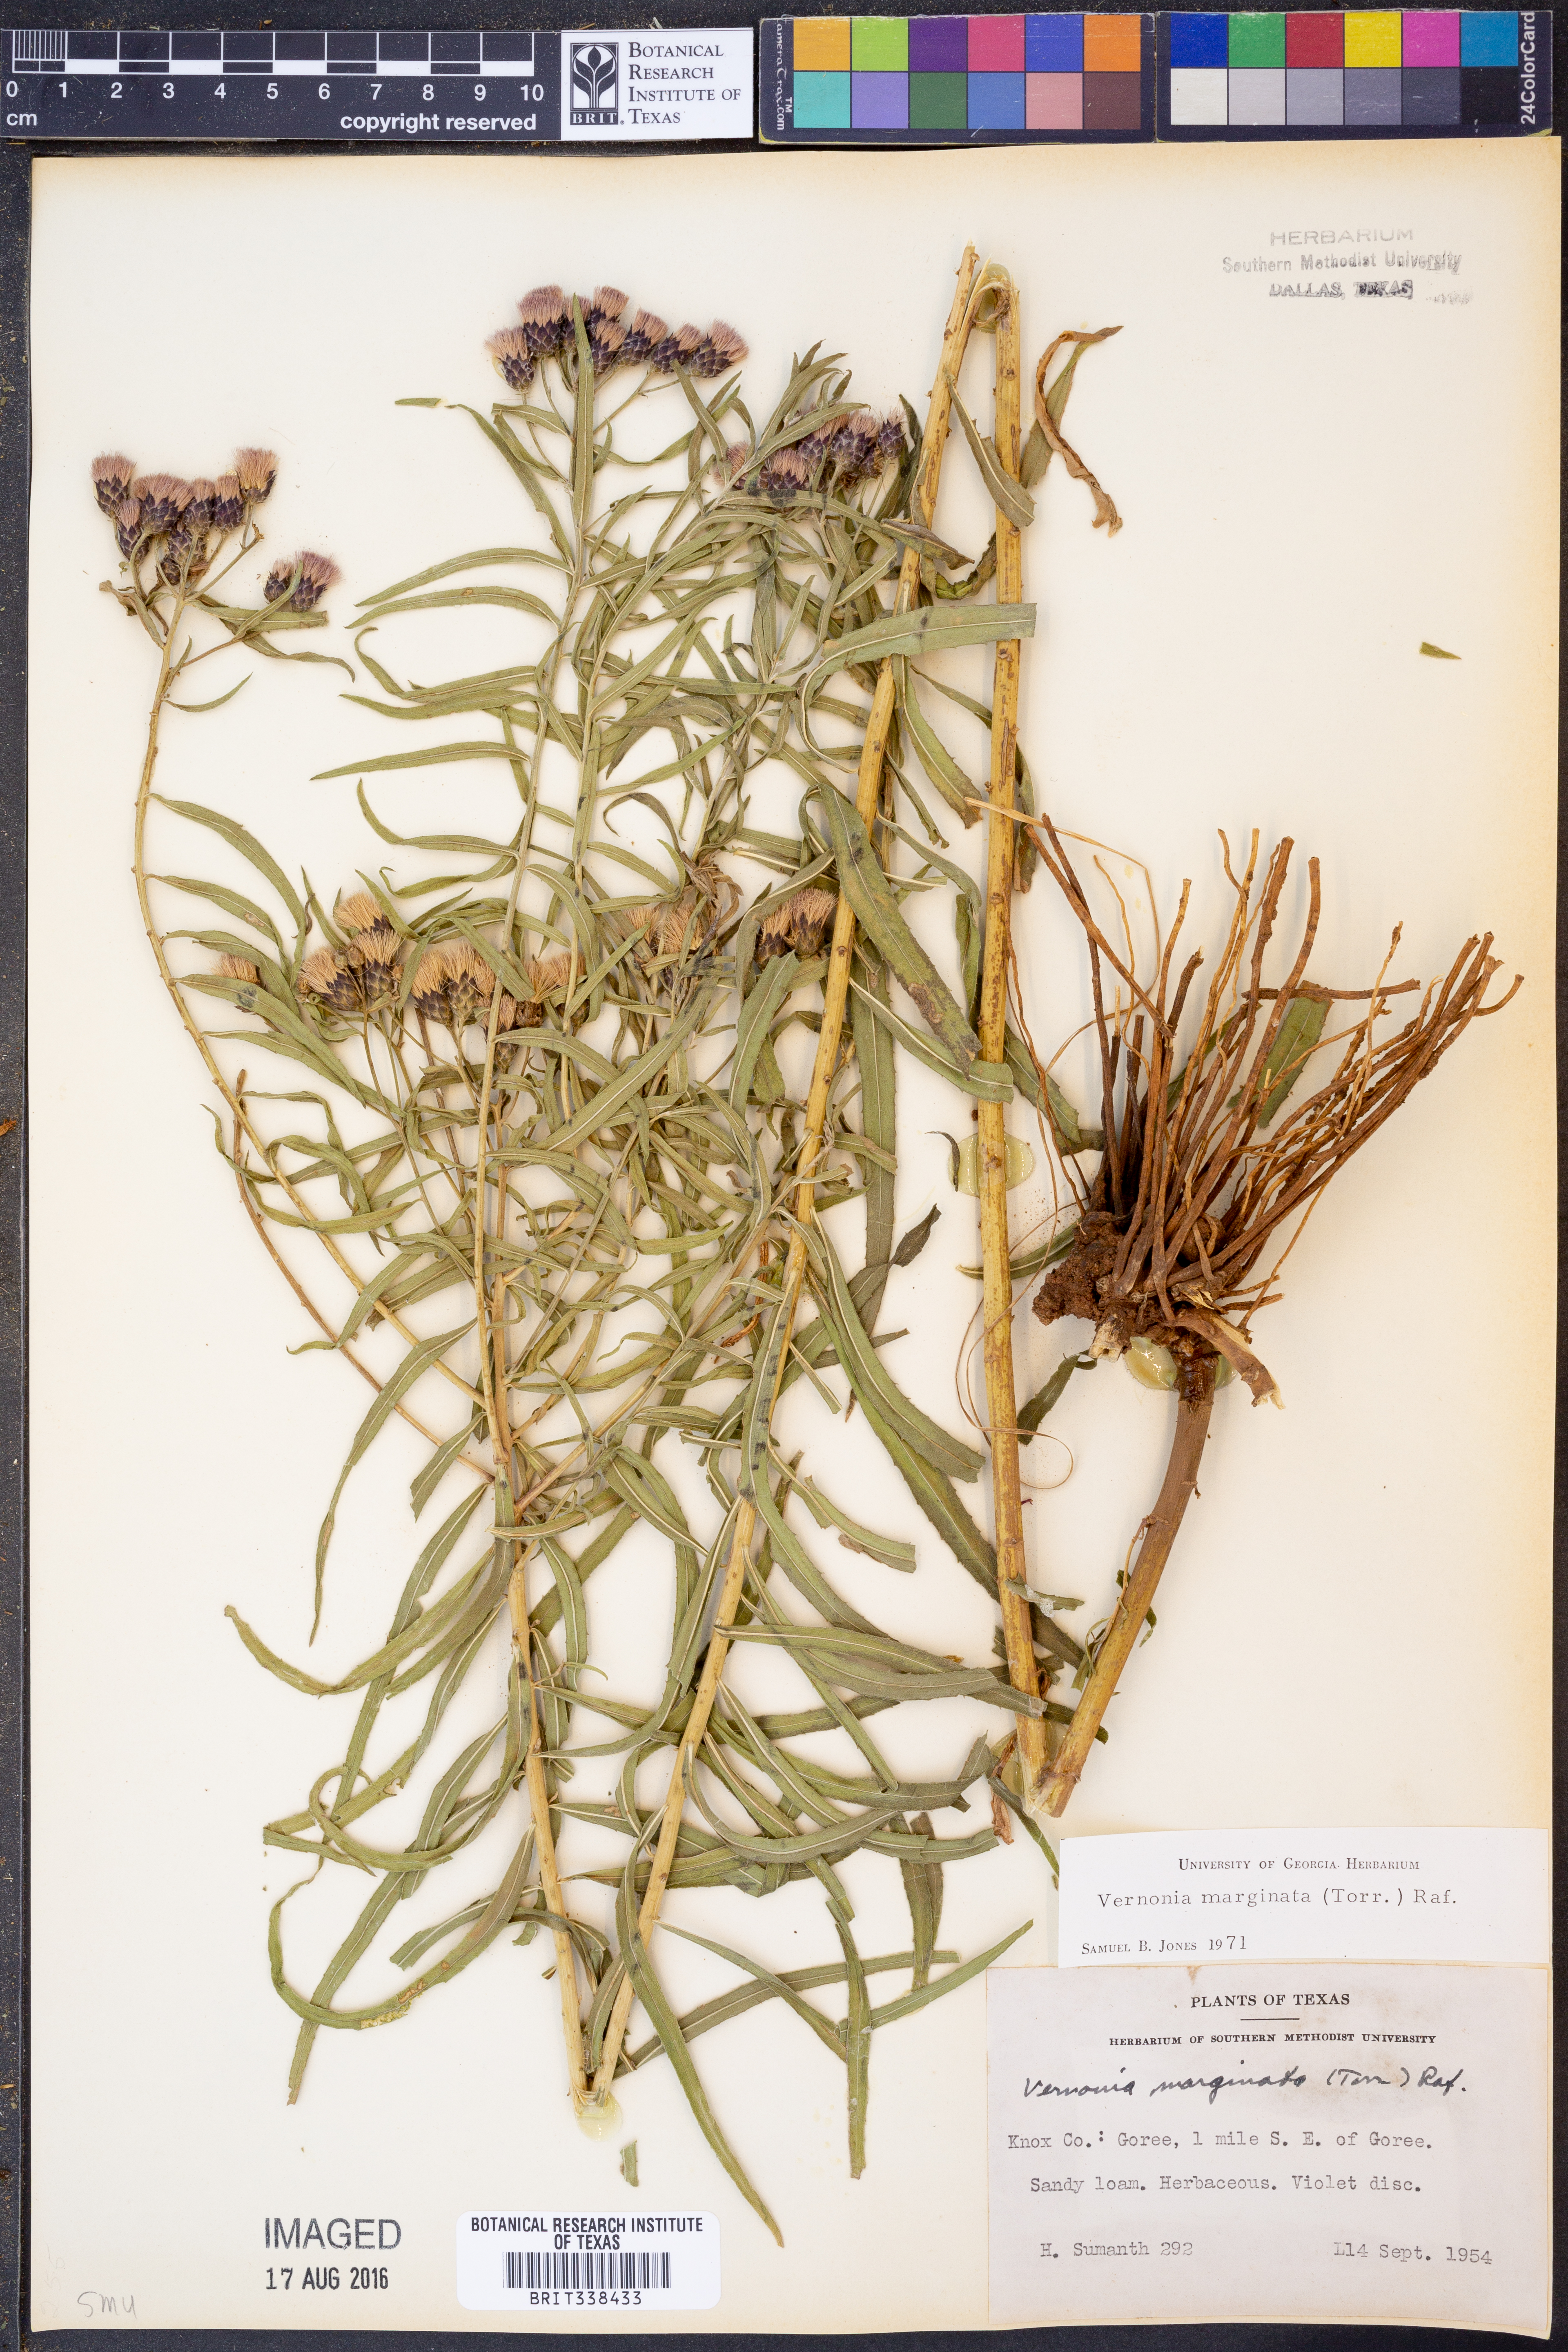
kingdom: Plantae
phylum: Tracheophyta
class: Magnoliopsida
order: Asterales
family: Asteraceae
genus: Vernonia
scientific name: Vernonia marginata
